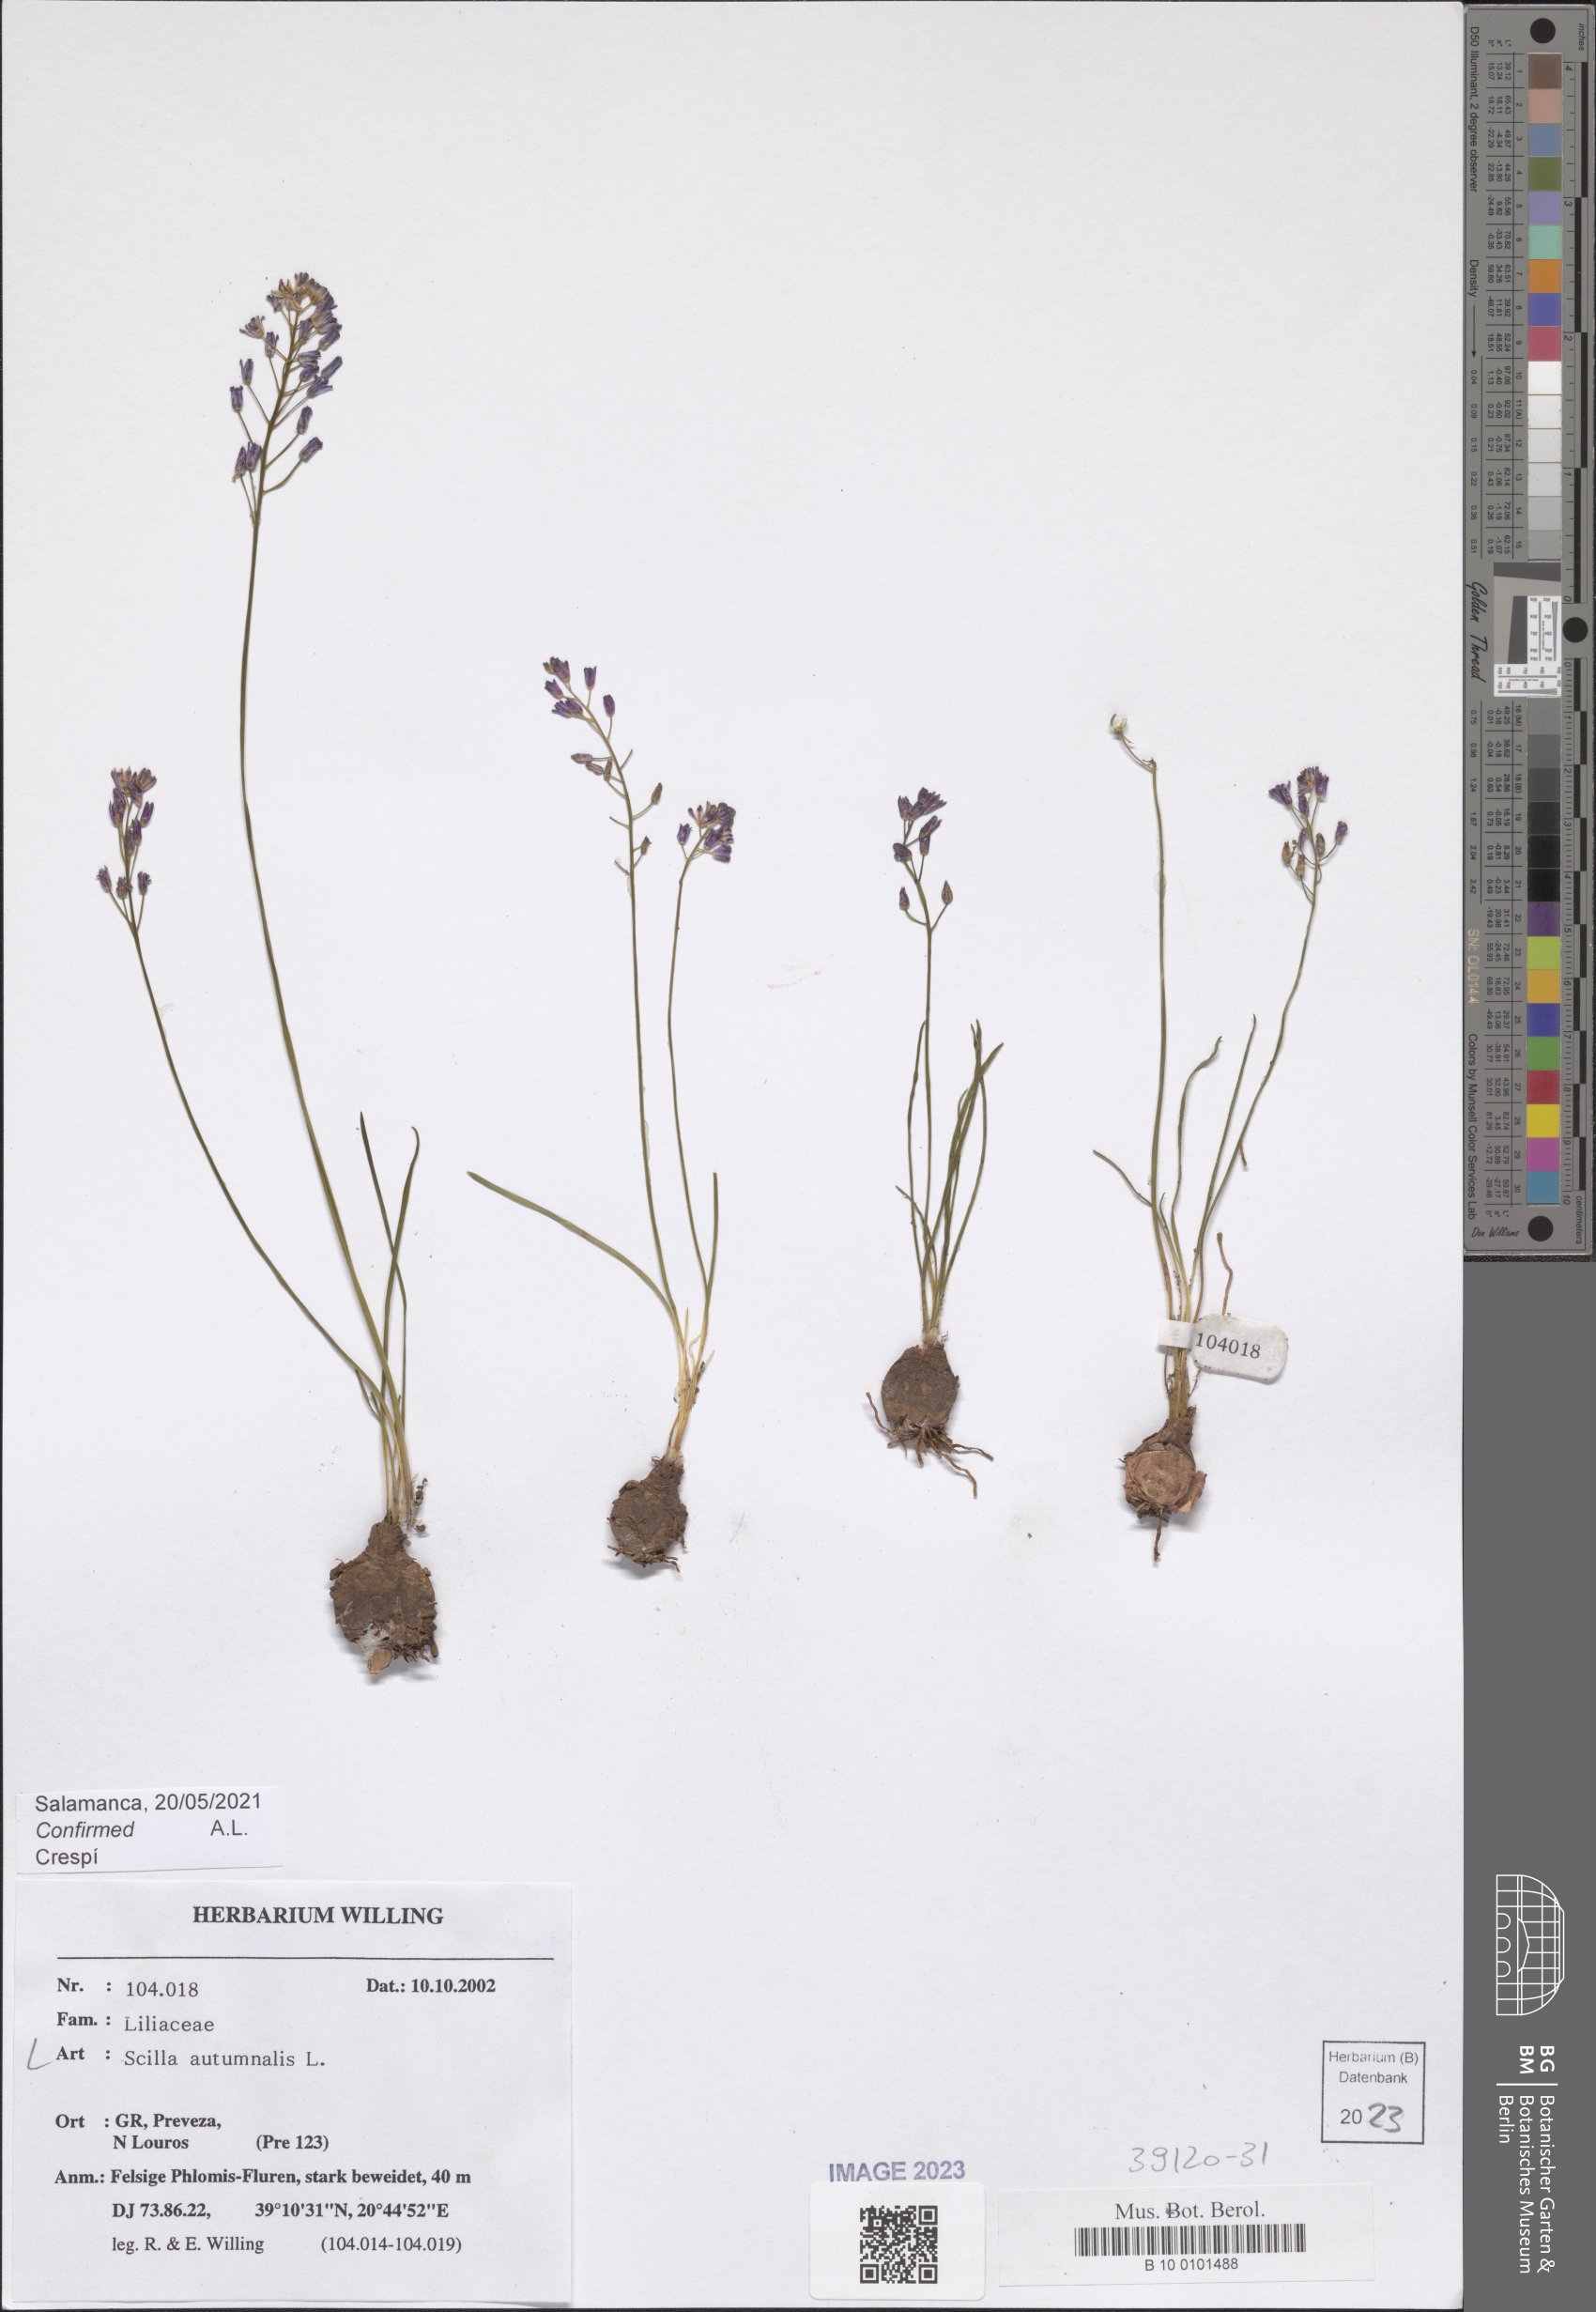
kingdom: Plantae
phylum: Tracheophyta
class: Liliopsida
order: Asparagales
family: Asparagaceae
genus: Prospero
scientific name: Prospero autumnale
